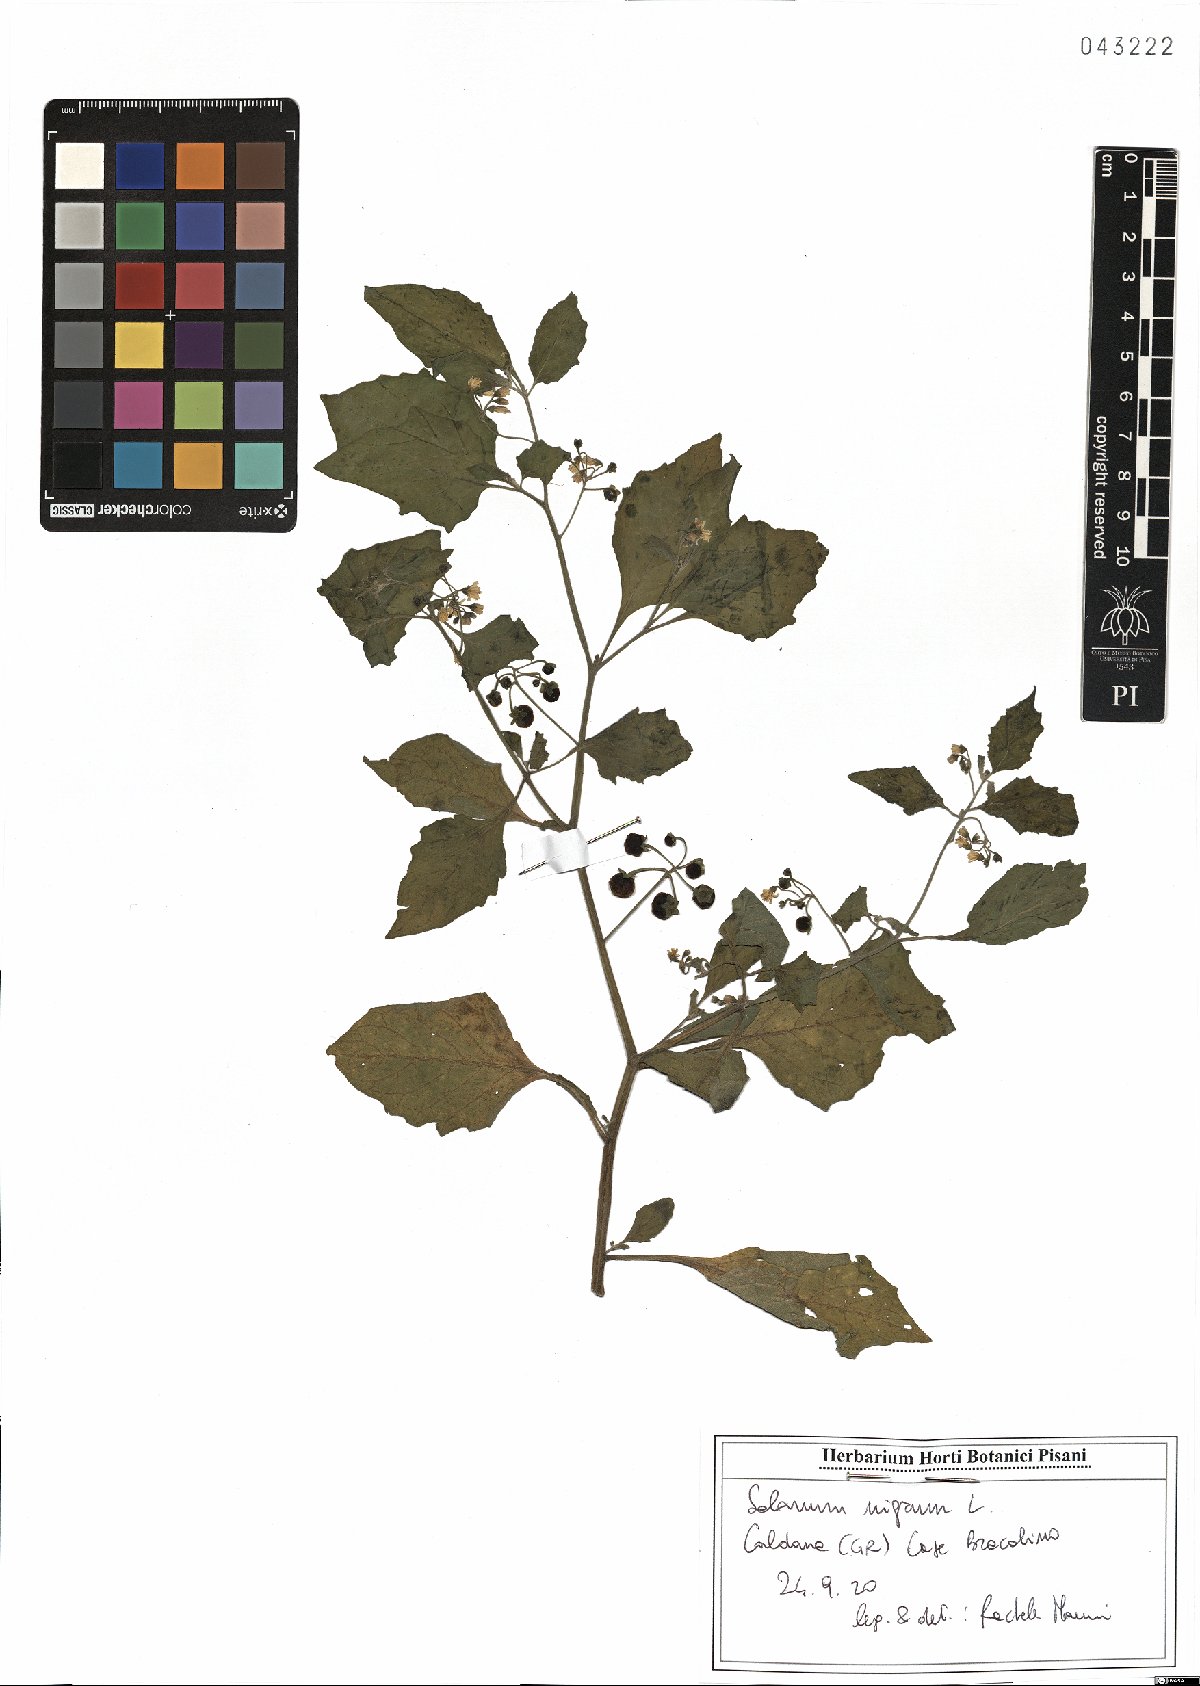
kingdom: Plantae
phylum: Tracheophyta
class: Magnoliopsida
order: Solanales
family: Solanaceae
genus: Solanum
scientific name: Solanum nigrum
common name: Black nightshade
